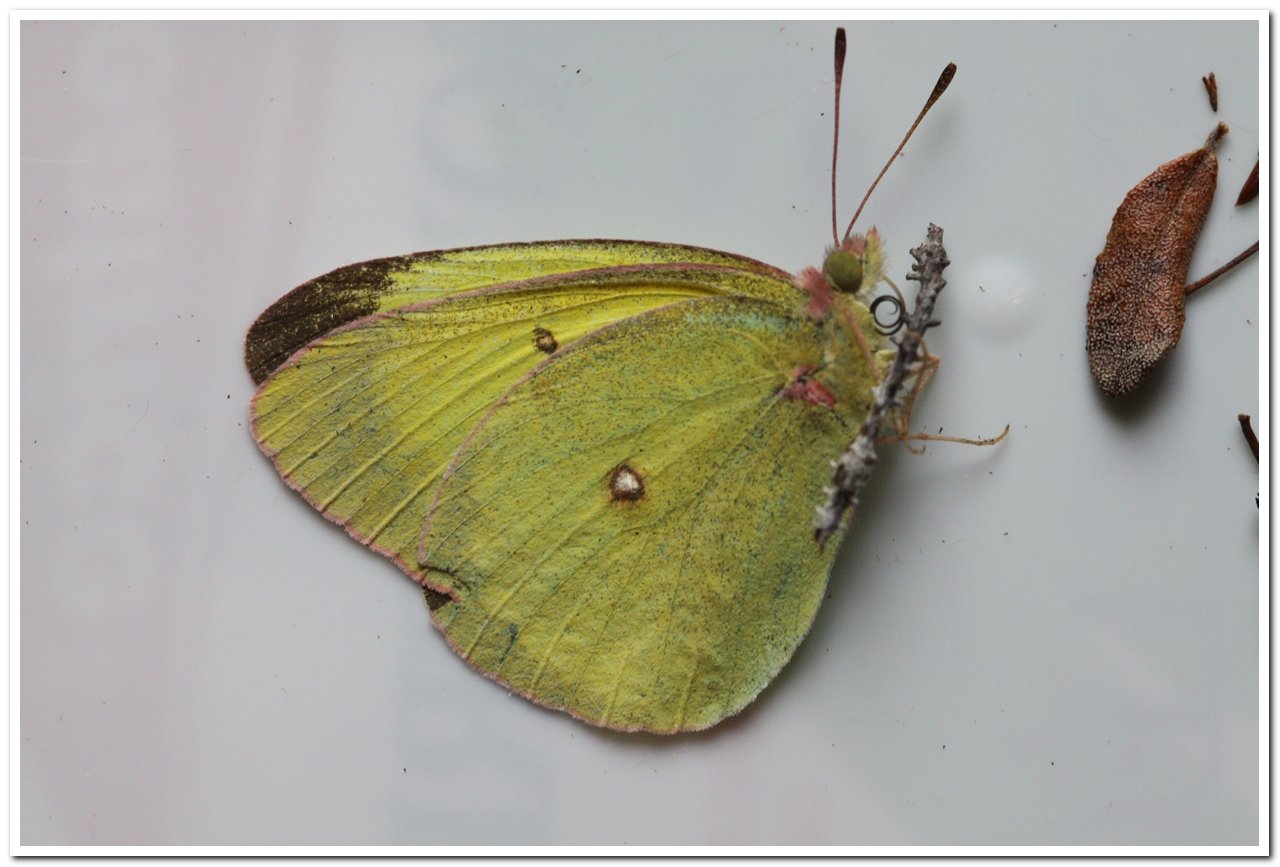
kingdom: Animalia
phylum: Arthropoda
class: Insecta
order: Lepidoptera
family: Pieridae
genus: Colias
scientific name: Colias interior
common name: Pink-edged Sulphur
